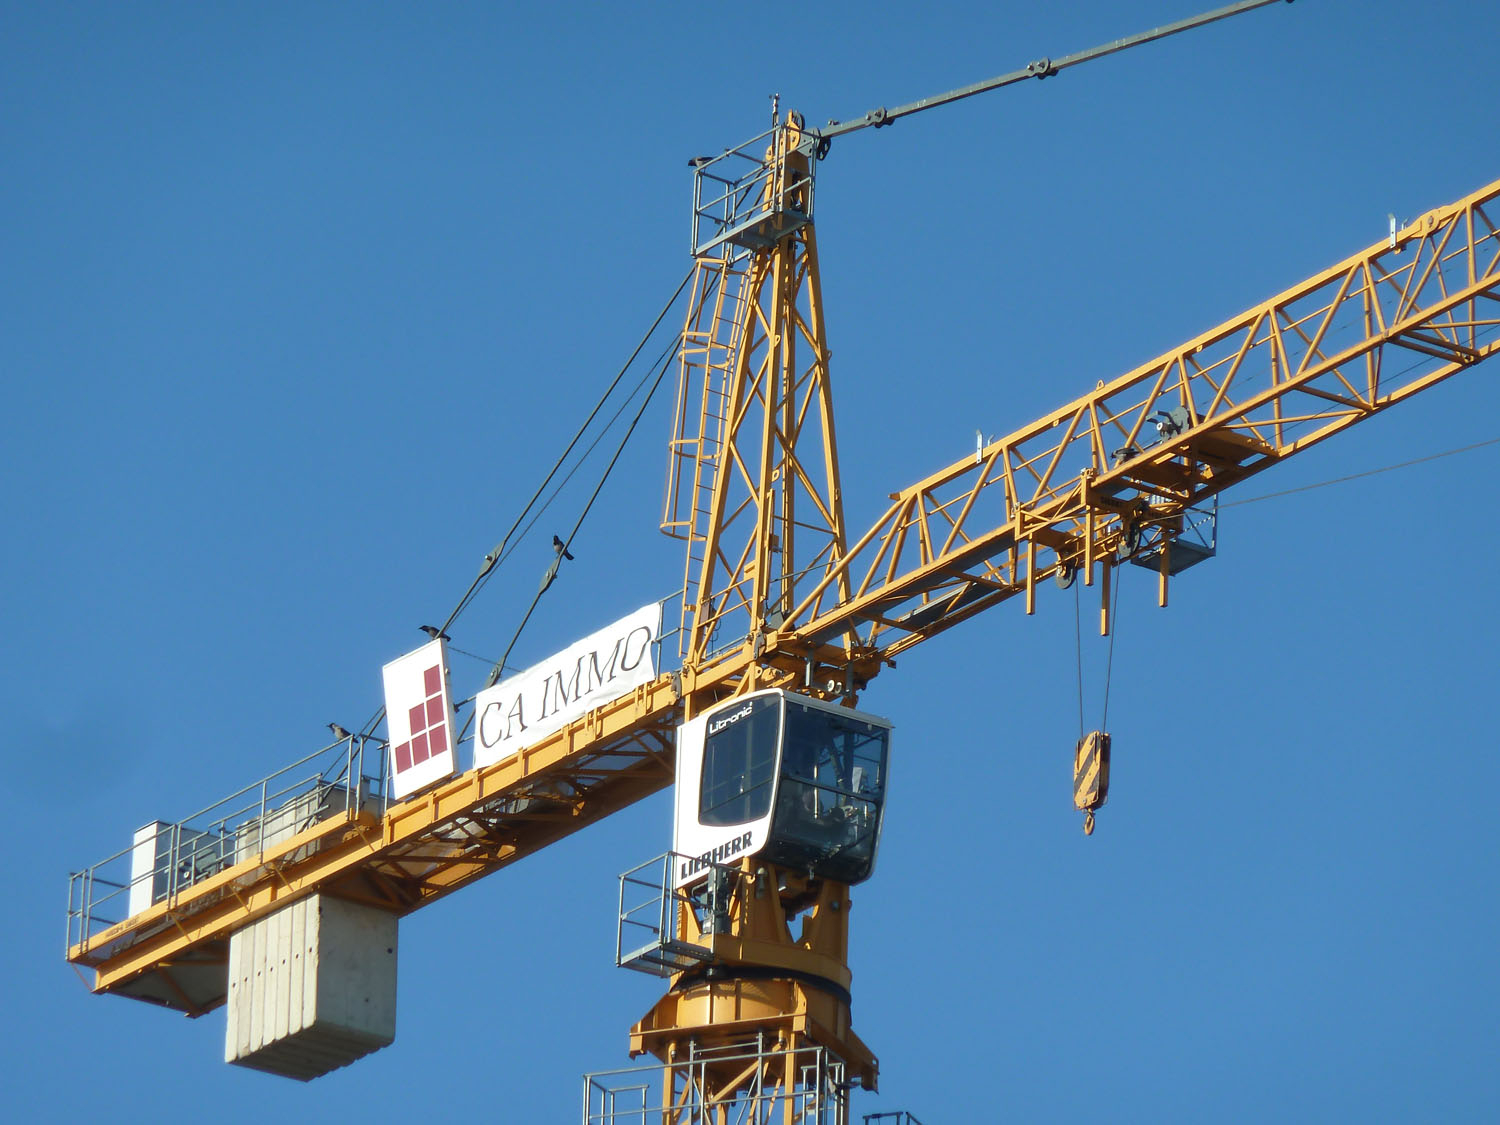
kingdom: Animalia
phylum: Chordata
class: Aves
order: Passeriformes
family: Corvidae
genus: Corvus
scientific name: Corvus cornix
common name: Hooded crow
